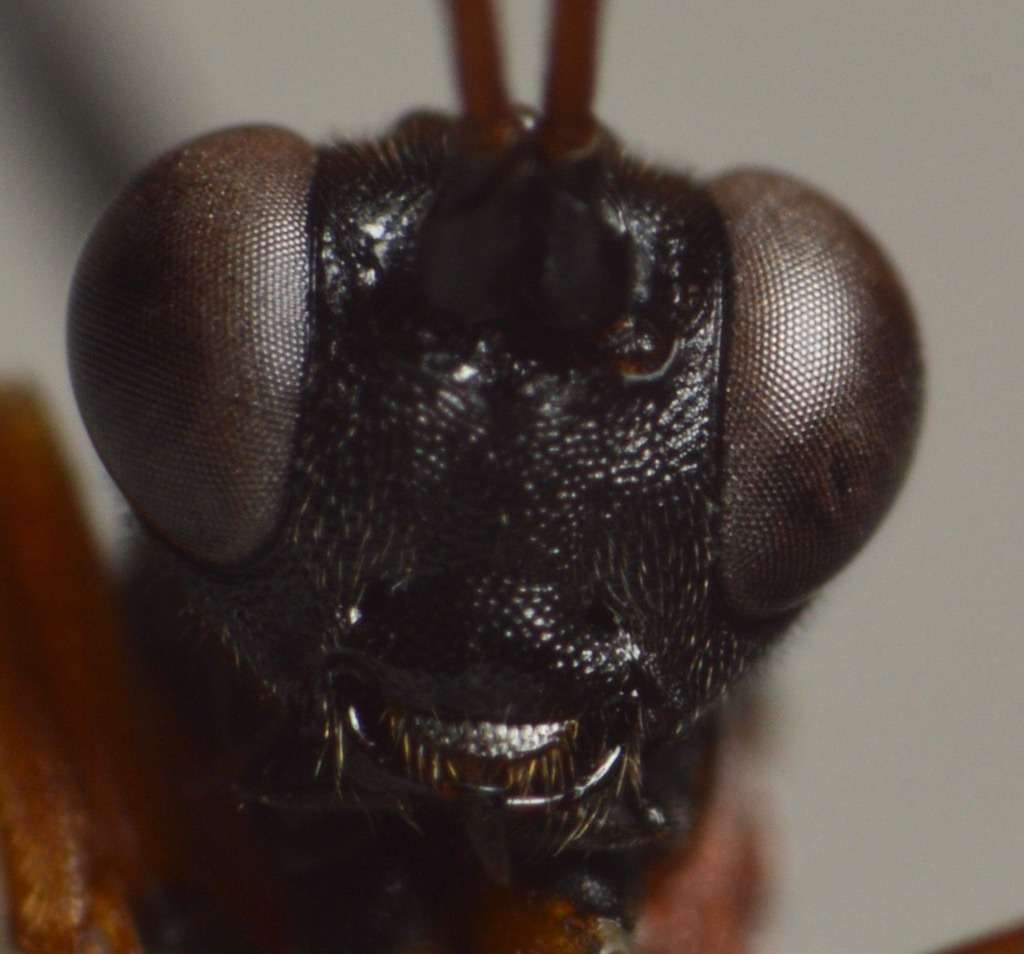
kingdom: Animalia
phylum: Arthropoda
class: Insecta
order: Hymenoptera
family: Ichneumonidae
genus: Linycus
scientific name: Linycus exhortator
